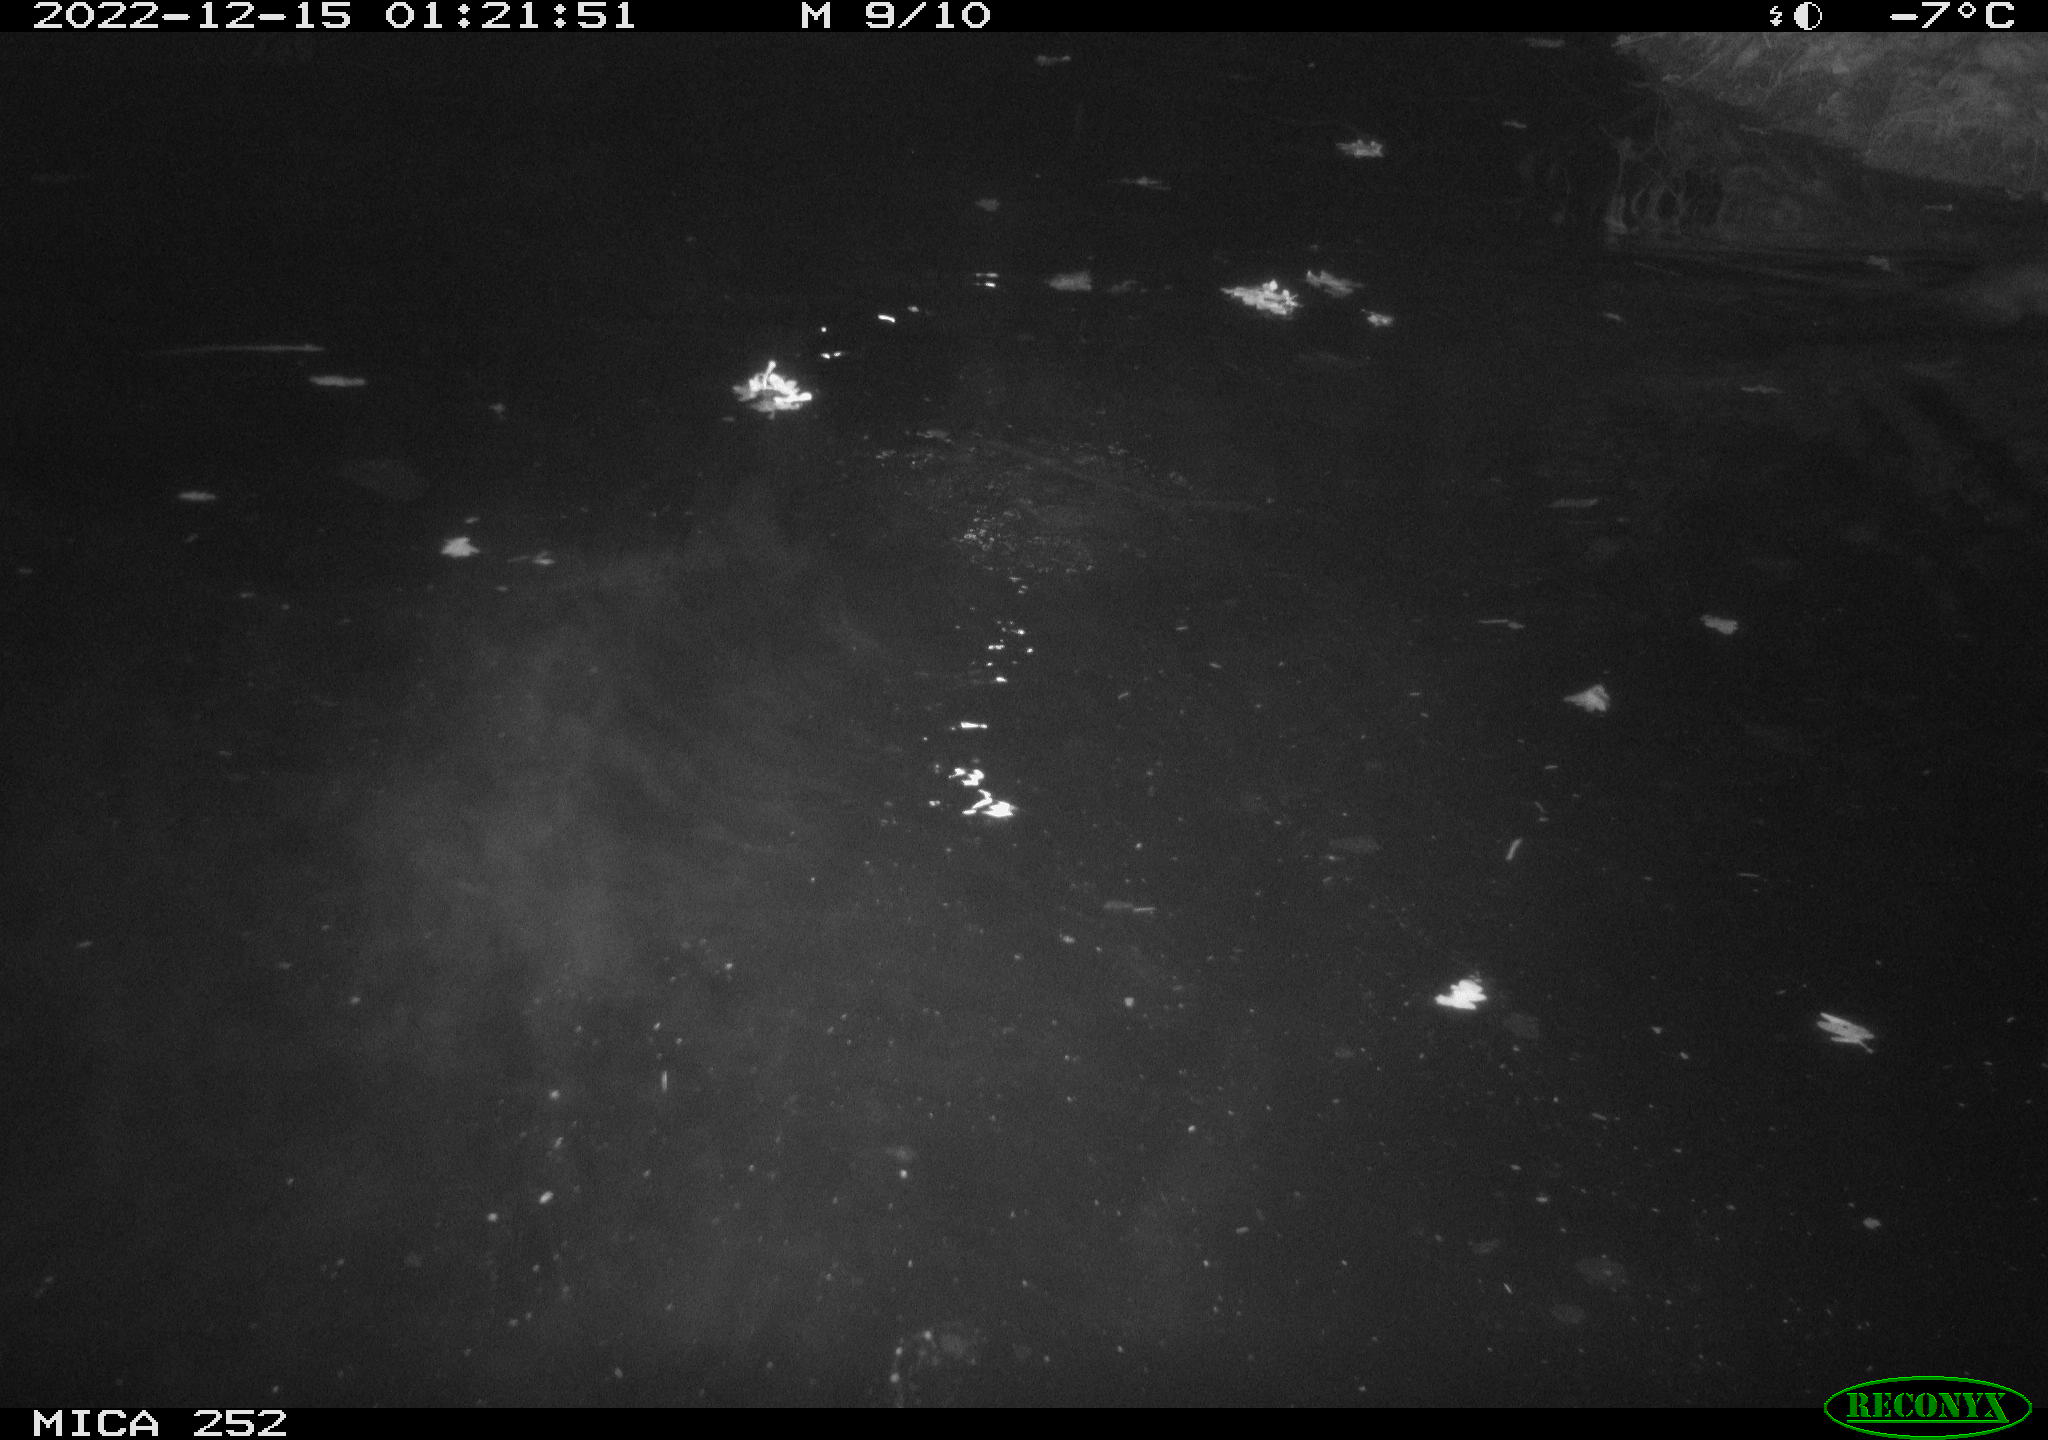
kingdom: Animalia
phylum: Chordata
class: Mammalia
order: Rodentia
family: Castoridae
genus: Castor
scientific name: Castor fiber
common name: Eurasian beaver
